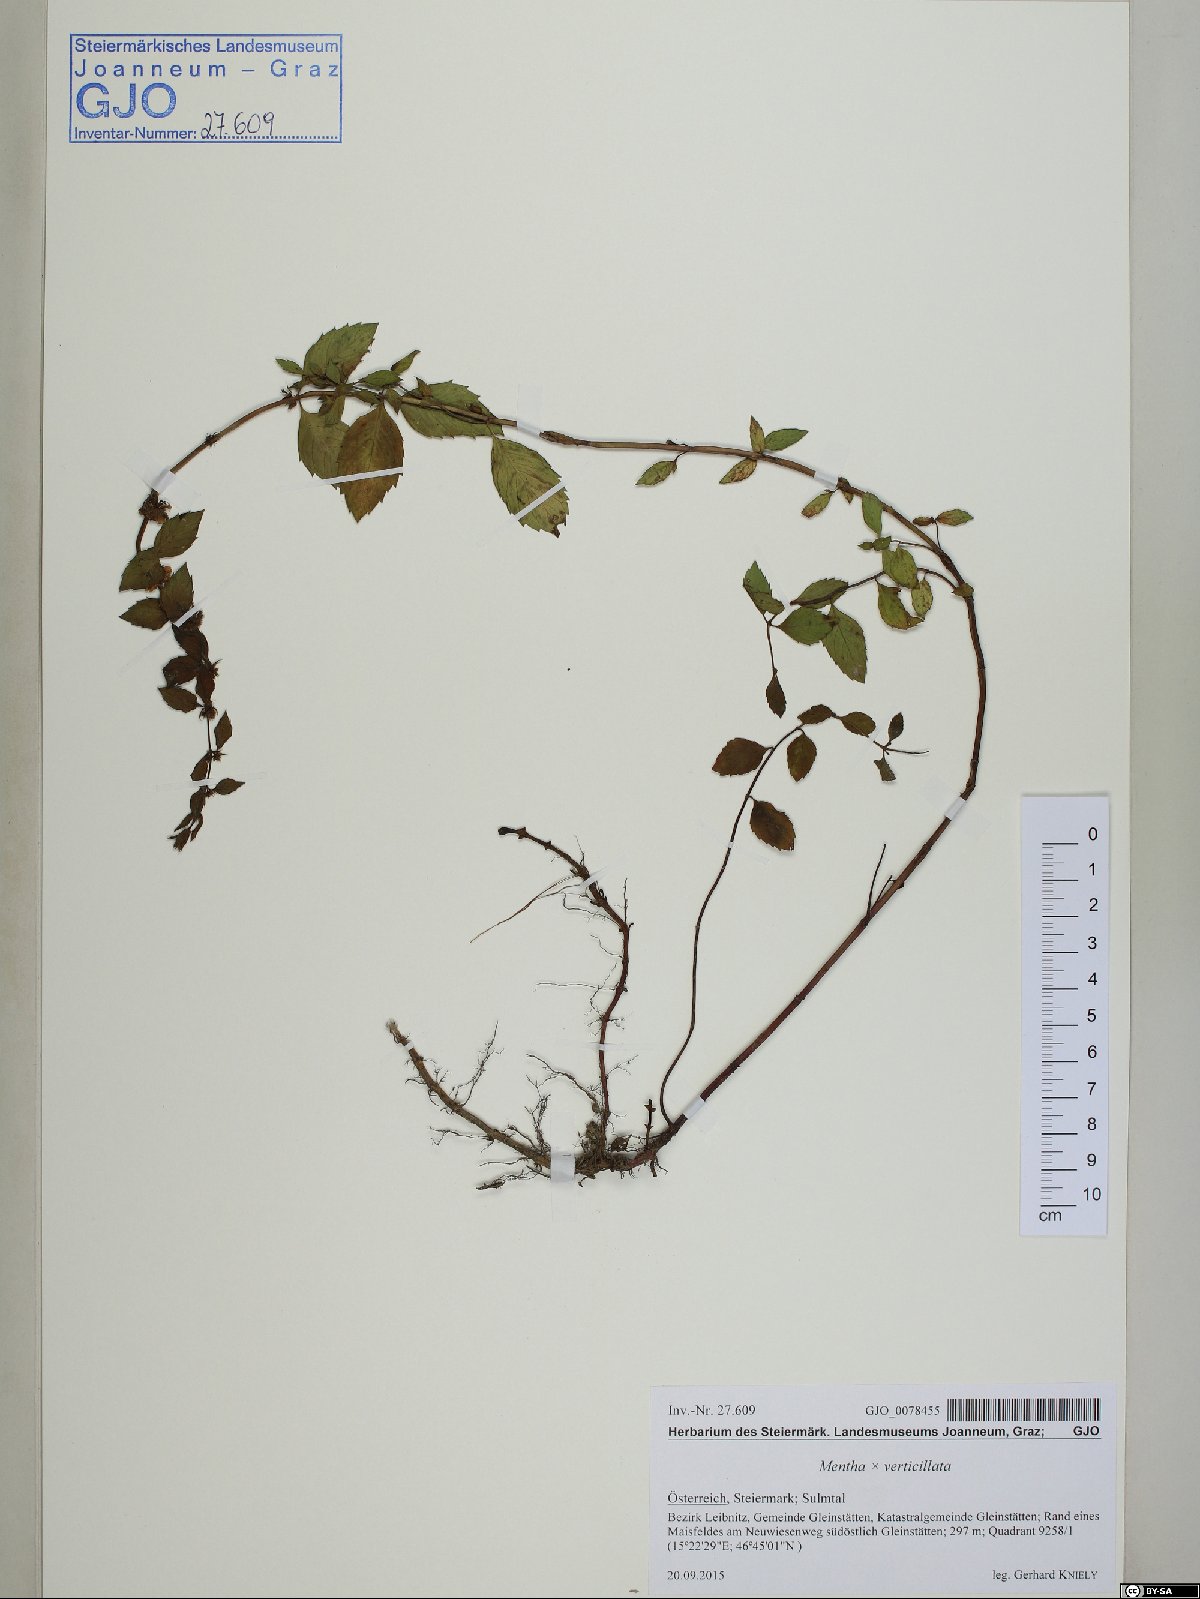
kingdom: Plantae
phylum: Tracheophyta
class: Magnoliopsida
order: Lamiales
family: Lamiaceae
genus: Mentha
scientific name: Mentha verticillata
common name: Mint
